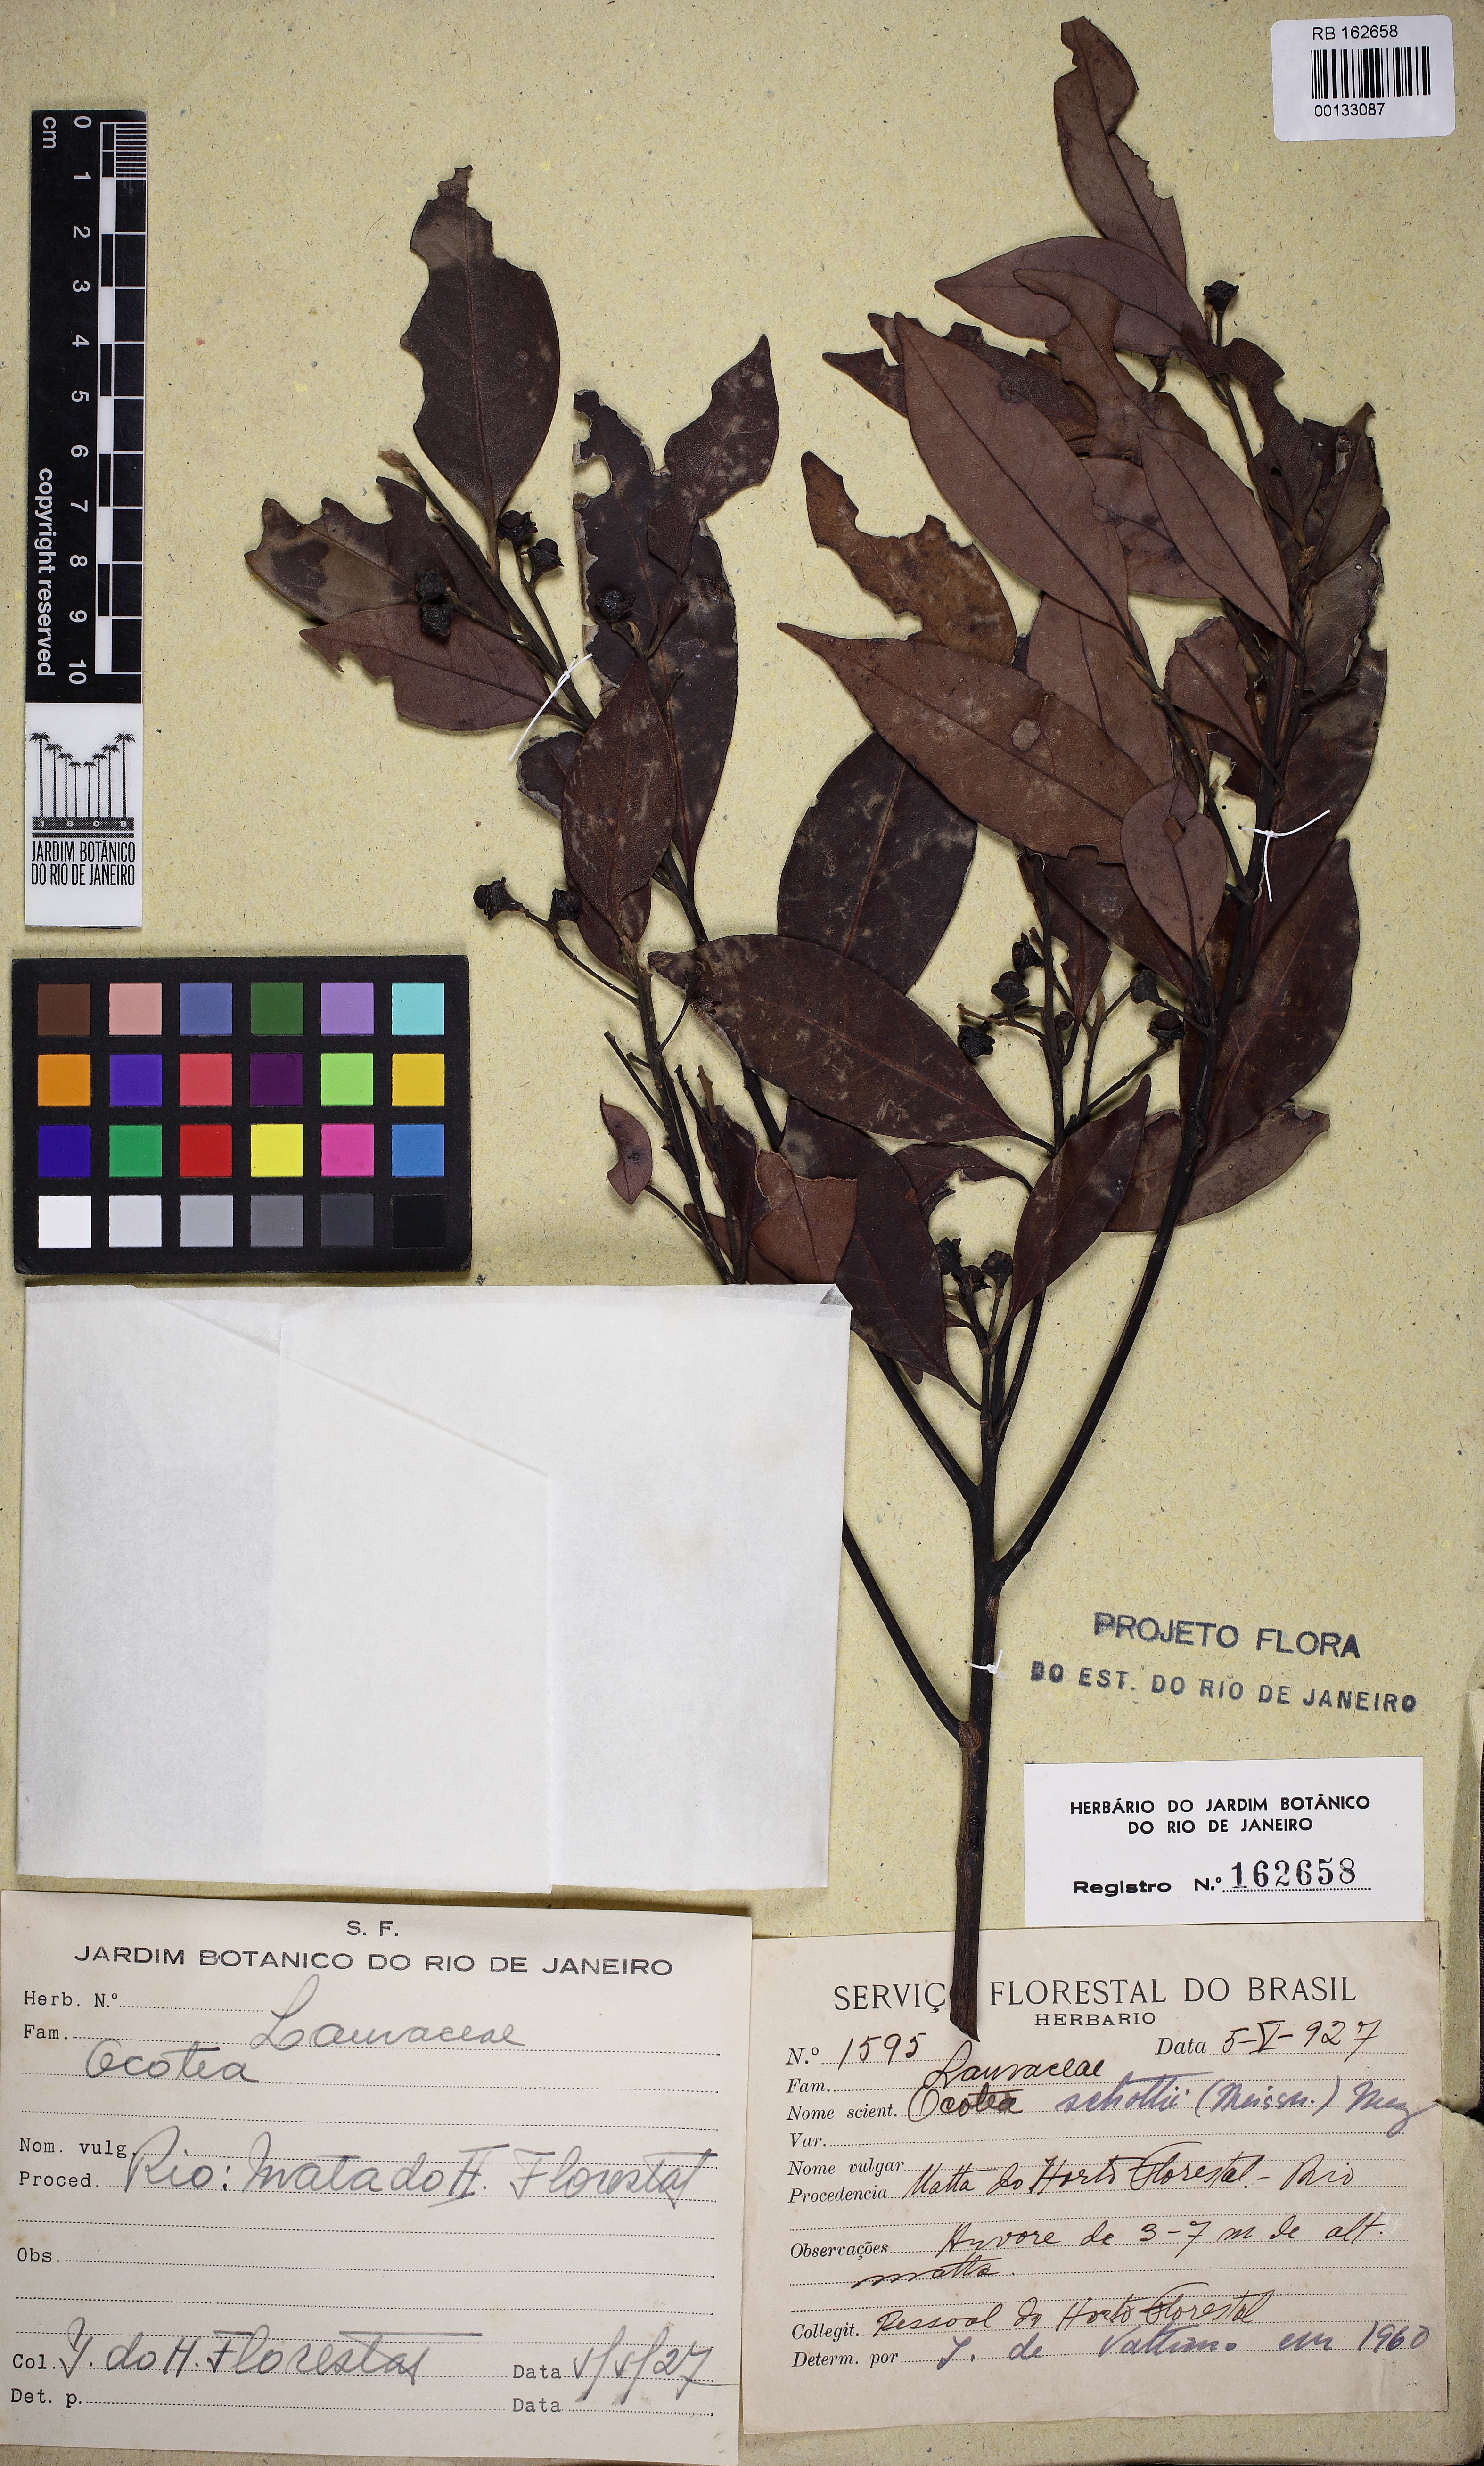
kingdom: Plantae
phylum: Tracheophyta
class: Magnoliopsida
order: Laurales
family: Lauraceae
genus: Ocotea
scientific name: Ocotea lancifolia
